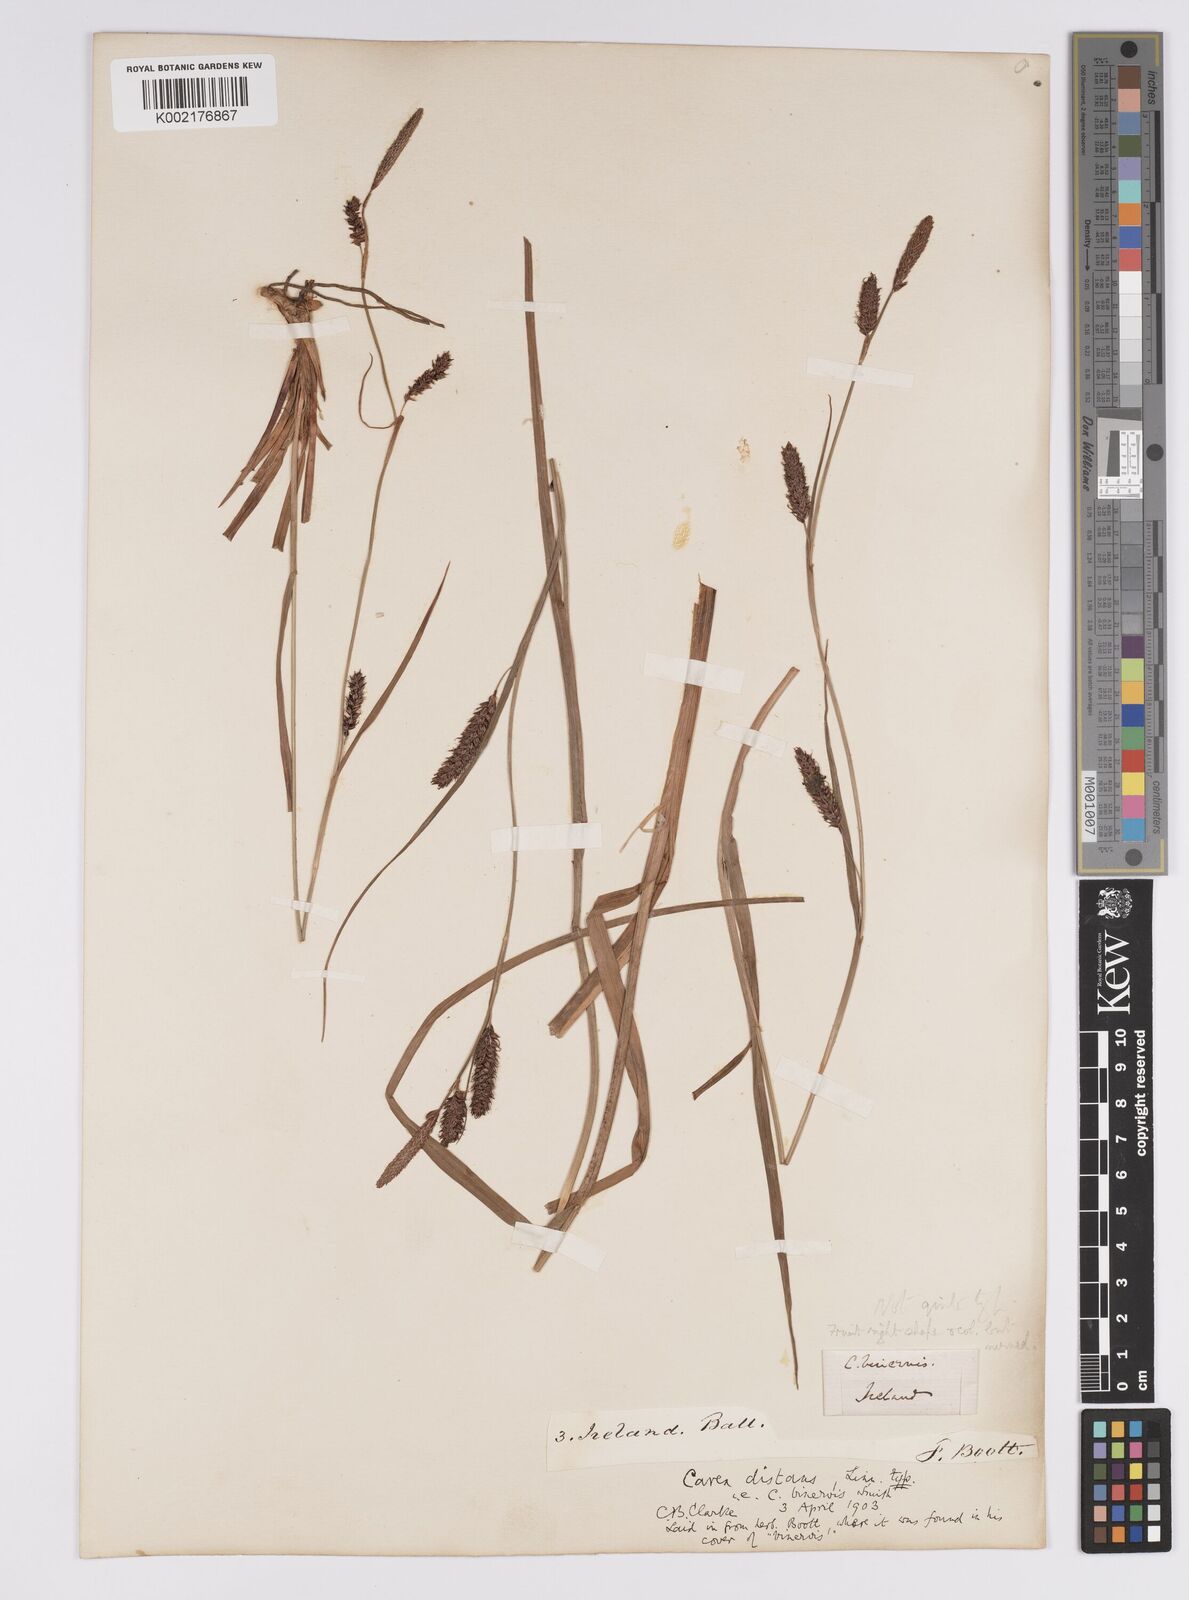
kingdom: Plantae
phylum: Tracheophyta
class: Liliopsida
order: Poales
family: Cyperaceae
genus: Carex
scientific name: Carex binervis
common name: Green-ribbed sedge
